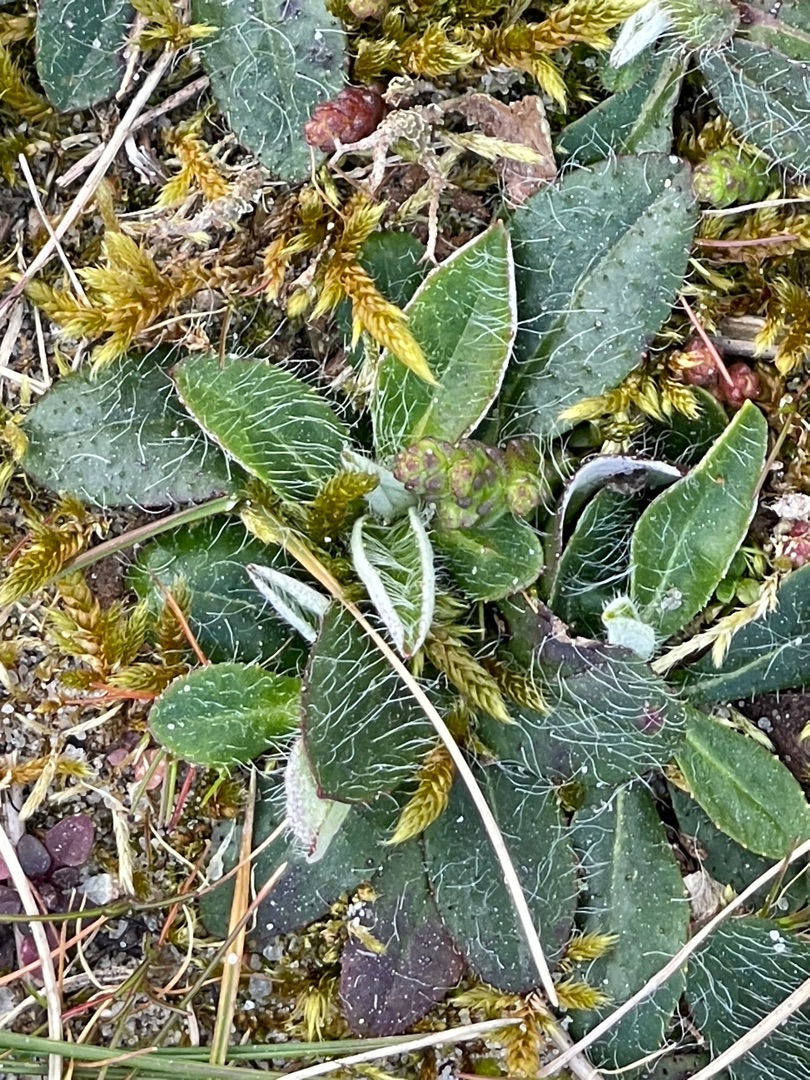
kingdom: Plantae
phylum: Tracheophyta
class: Magnoliopsida
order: Asterales
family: Asteraceae
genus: Pilosella
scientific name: Pilosella officinarum
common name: Håret høgeurt
